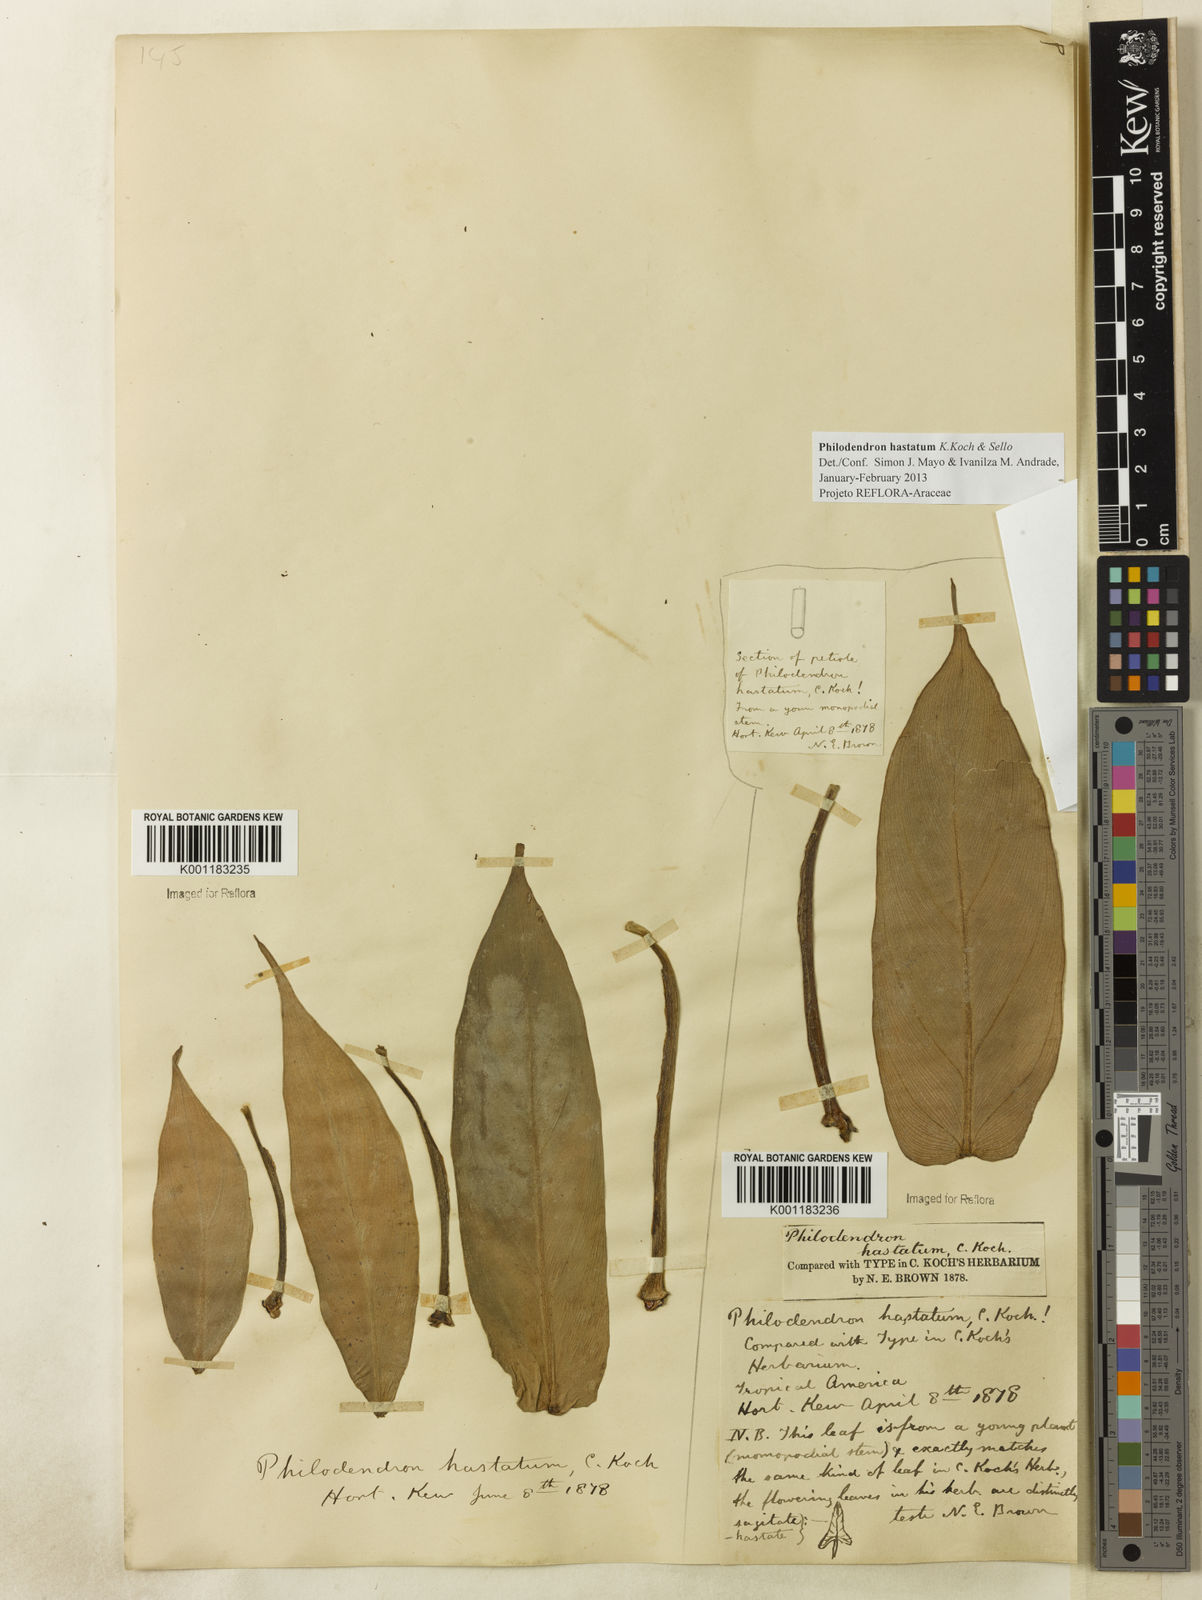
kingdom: Plantae
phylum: Tracheophyta
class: Liliopsida
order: Alismatales
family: Araceae
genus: Philodendron
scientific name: Philodendron hastatum
